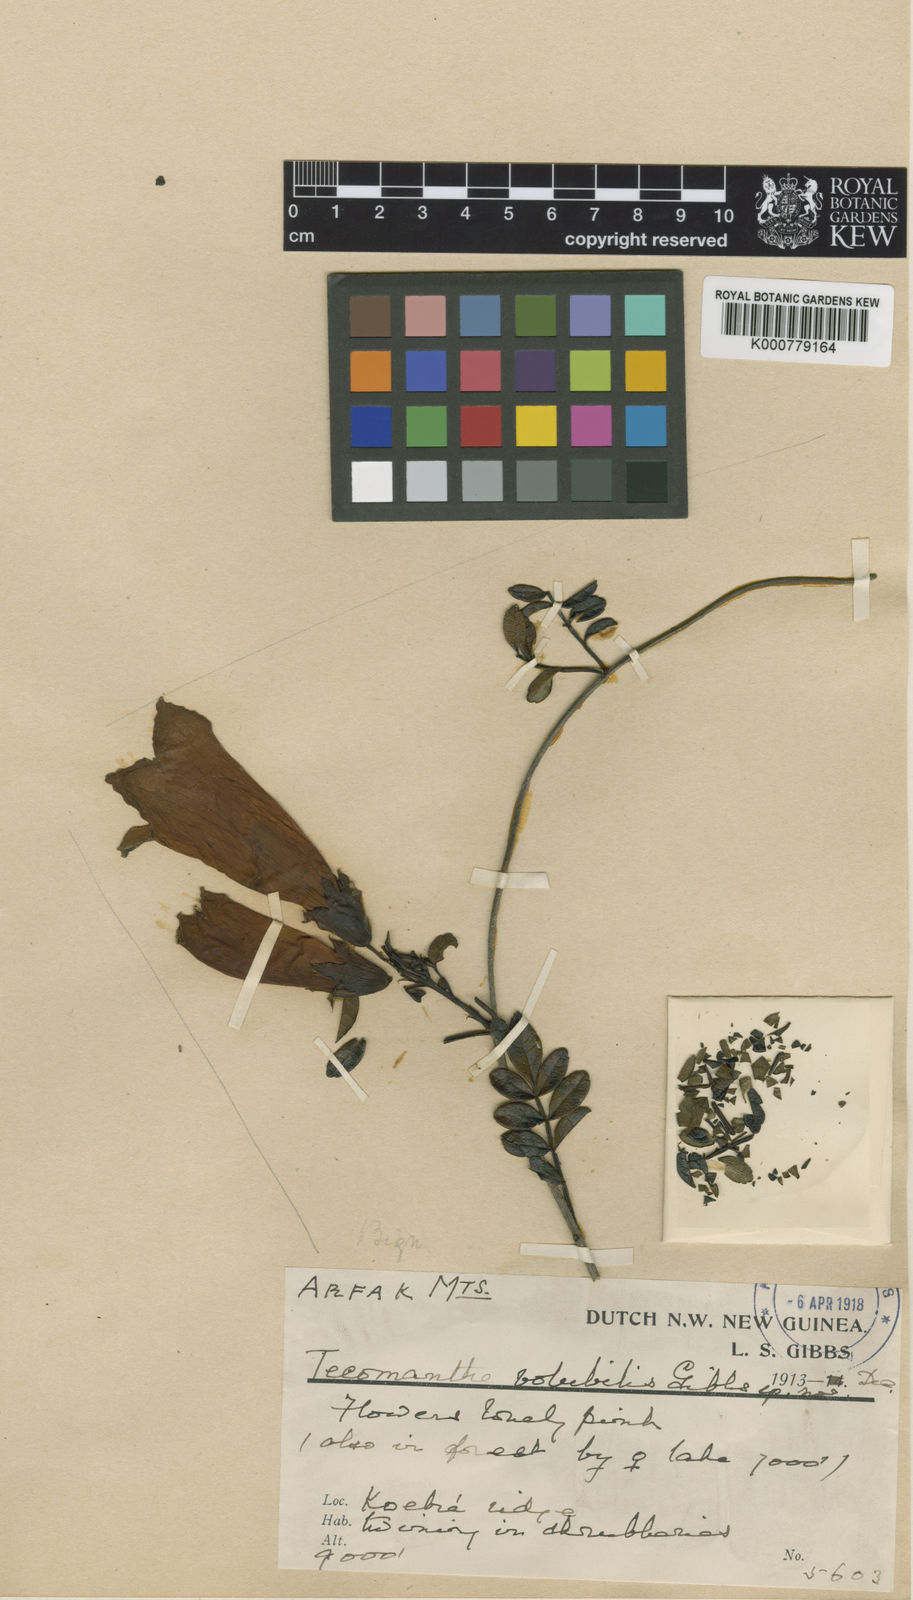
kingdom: Plantae
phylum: Tracheophyta
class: Magnoliopsida
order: Lamiales
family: Bignoniaceae
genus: Tecomanthe
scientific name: Tecomanthe volubilis
